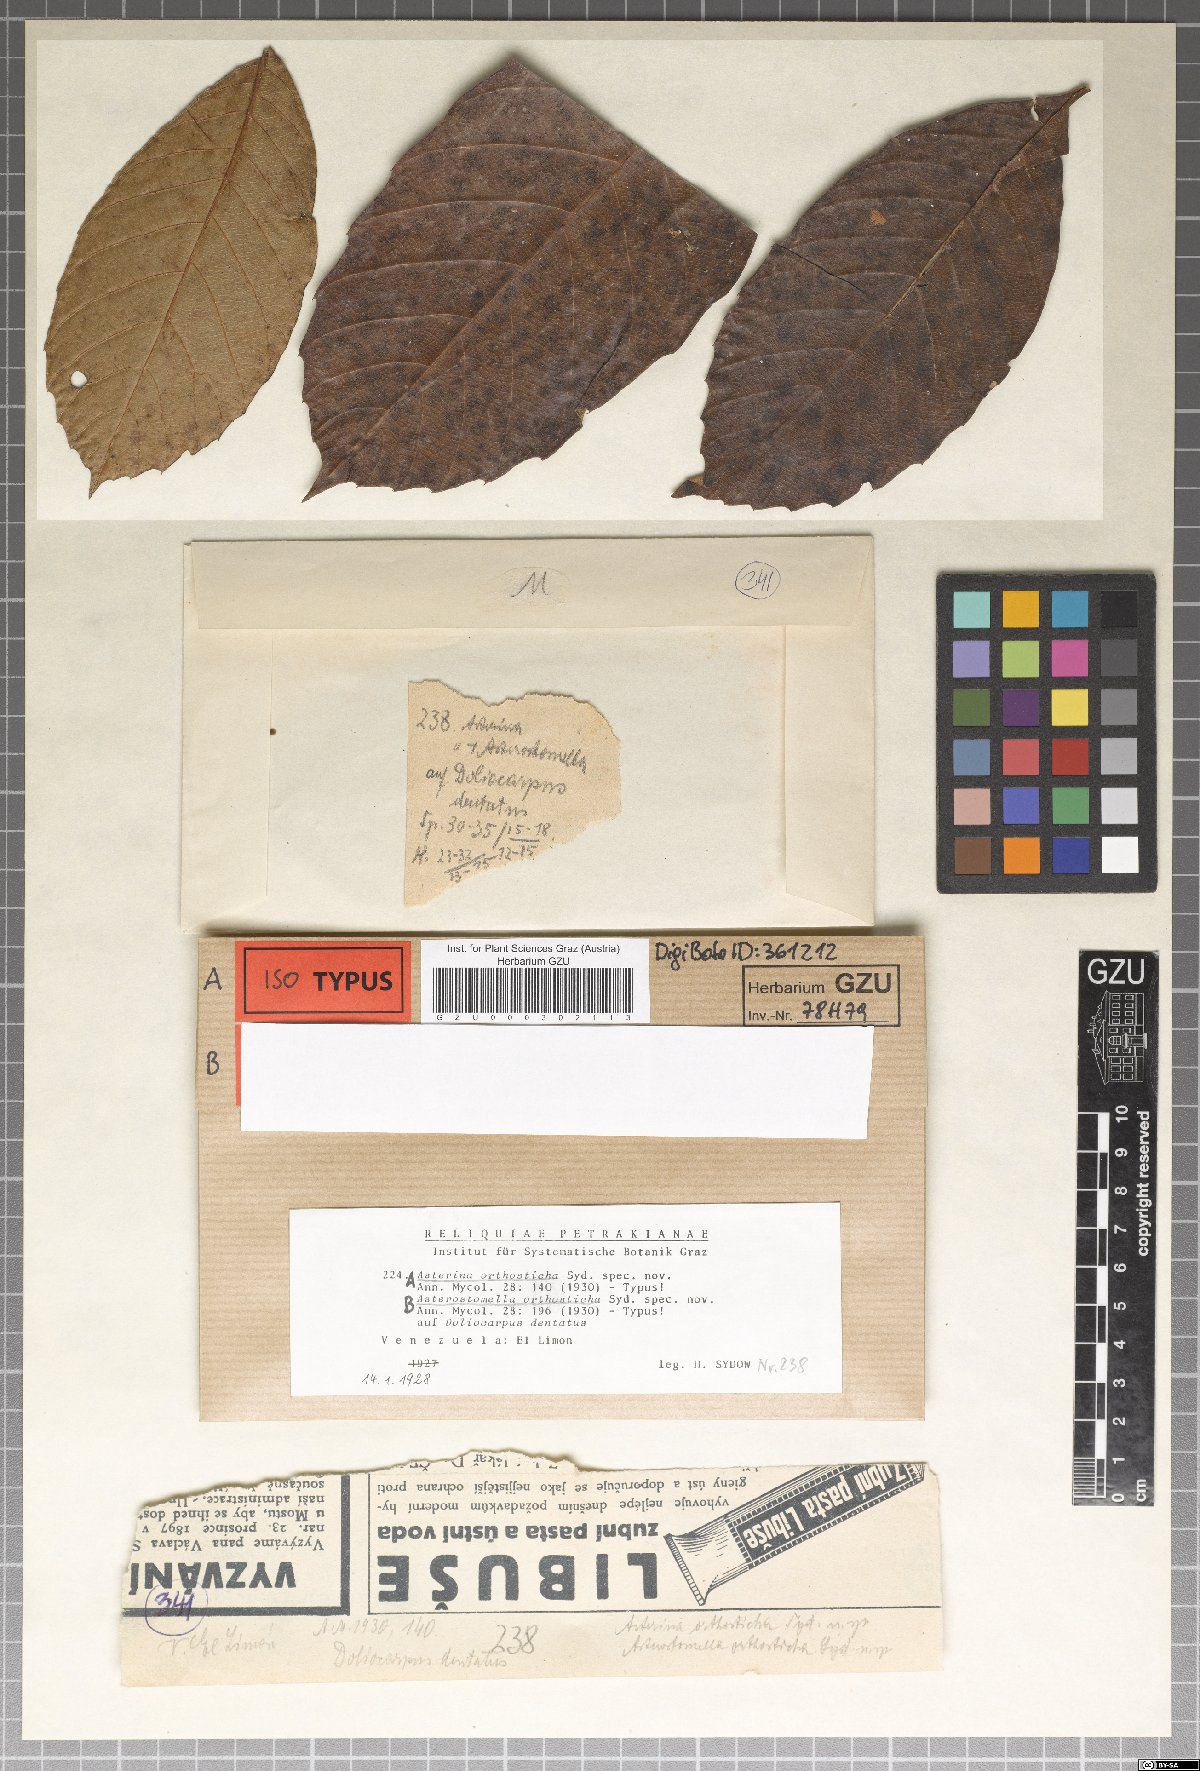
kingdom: Fungi
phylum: Ascomycota
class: Dothideomycetes
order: Asterinales
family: Asterinaceae
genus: Asterina
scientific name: Asterina orthosticha
